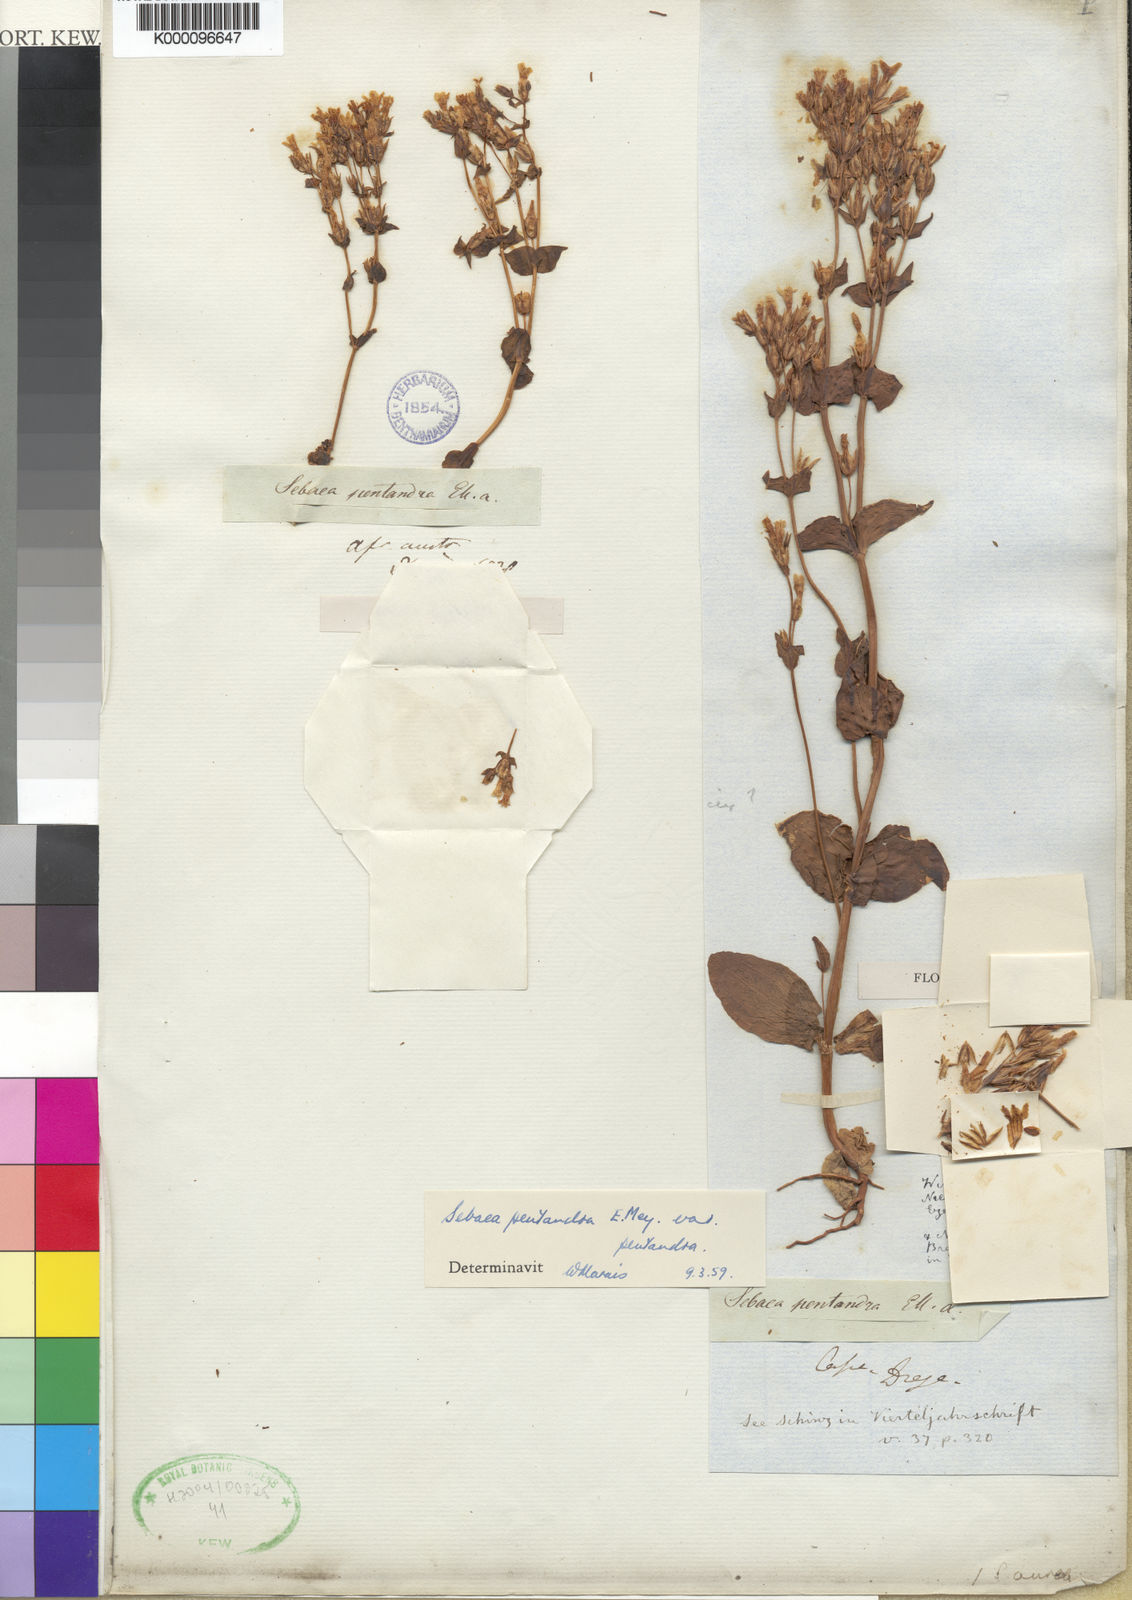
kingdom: Plantae
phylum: Tracheophyta
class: Magnoliopsida
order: Gentianales
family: Gentianaceae
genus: Sebaea
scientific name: Sebaea
